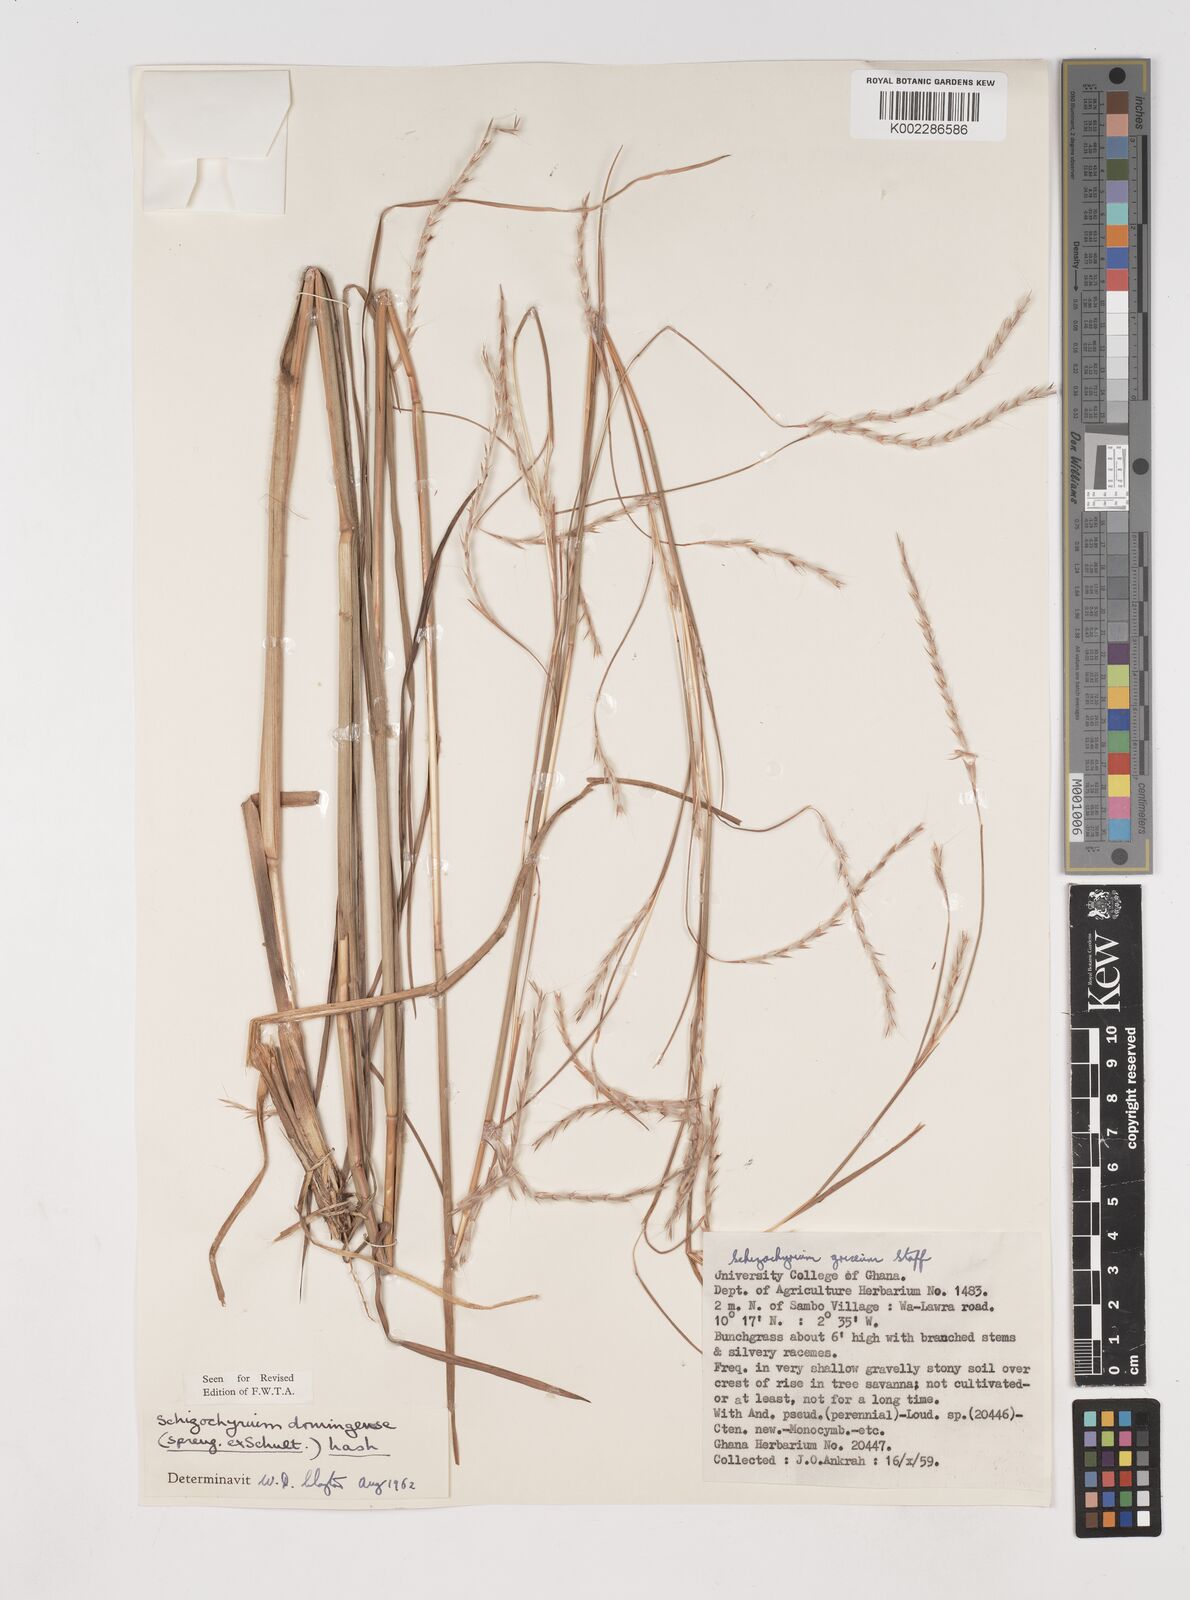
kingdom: Plantae
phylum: Tracheophyta
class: Liliopsida
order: Poales
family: Poaceae
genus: Schizachyrium
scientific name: Schizachyrium sanguineum
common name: Crimson bluestem
